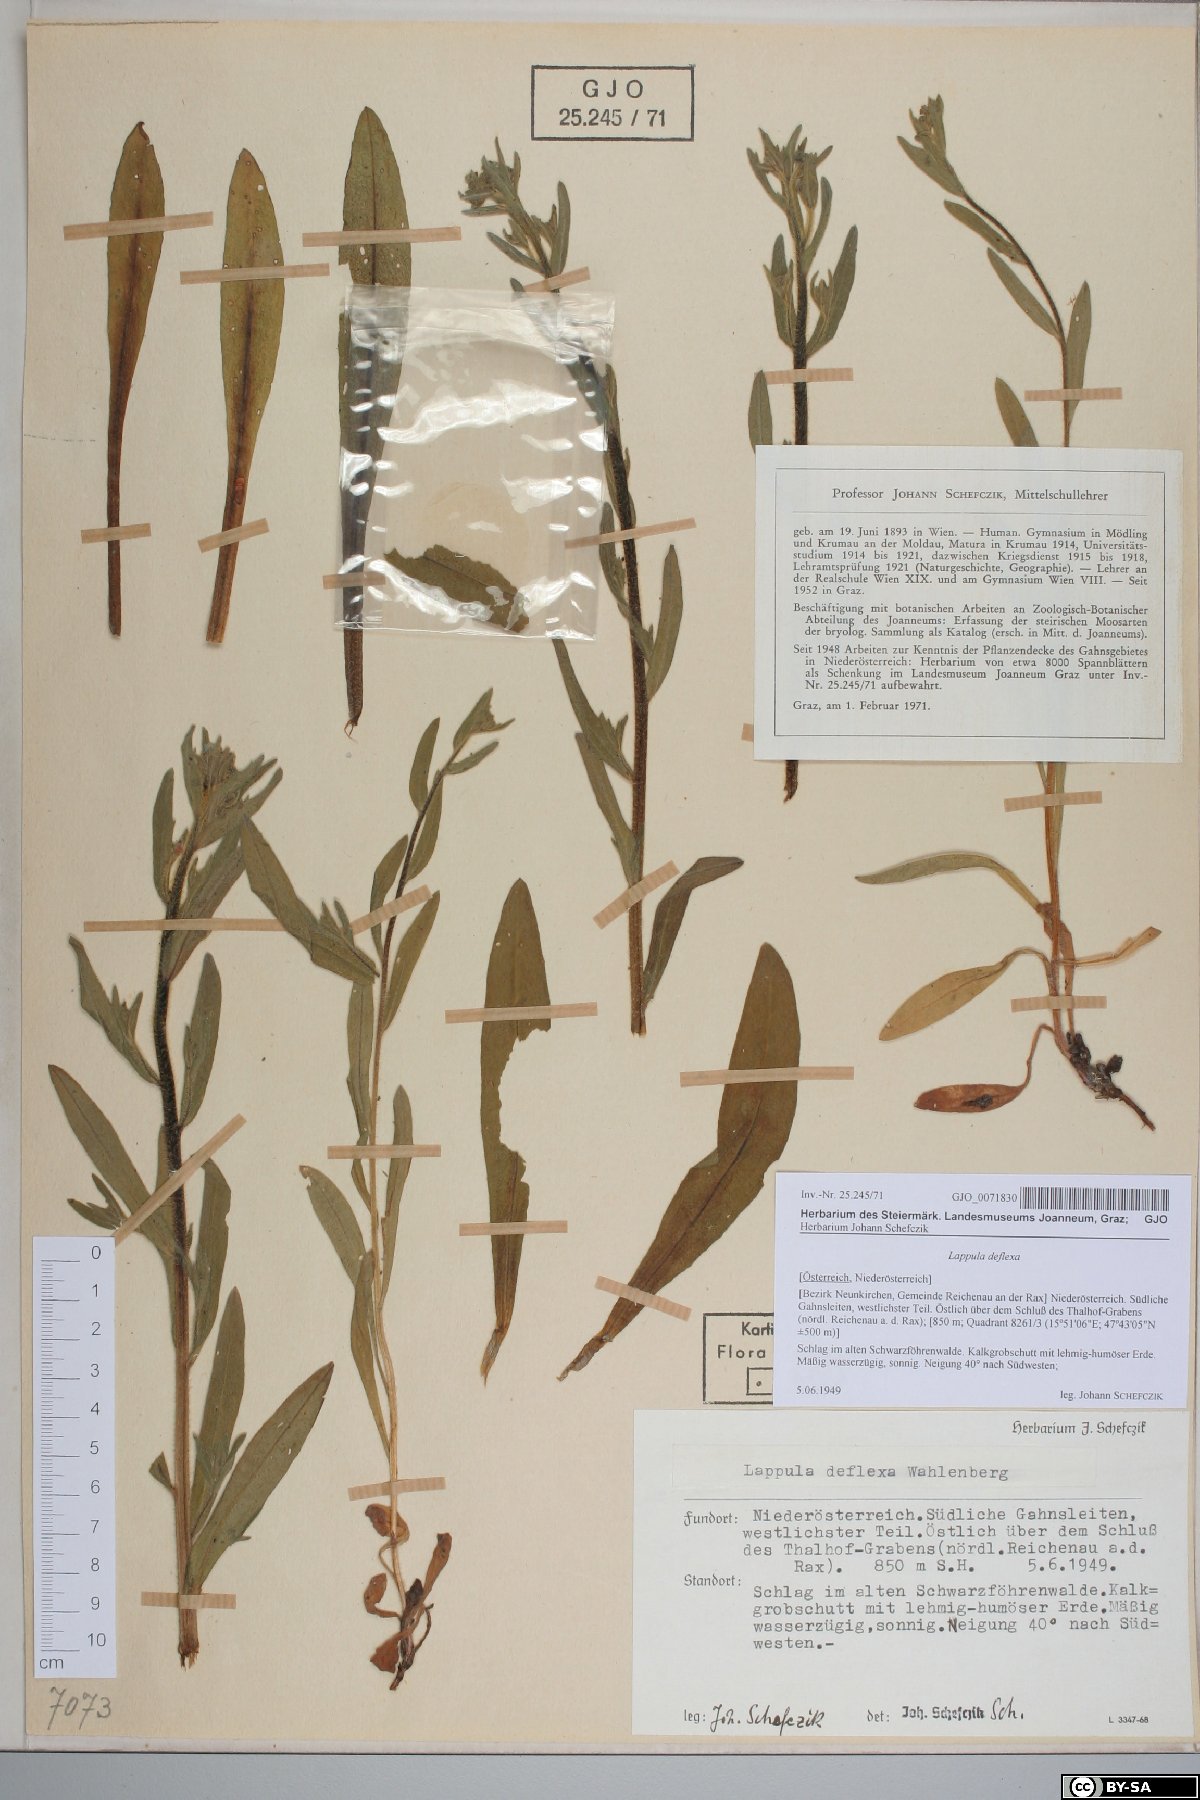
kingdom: Plantae
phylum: Tracheophyta
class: Magnoliopsida
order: Boraginales
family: Boraginaceae
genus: Hackelia
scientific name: Hackelia deflexa
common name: Nodding stickseed
